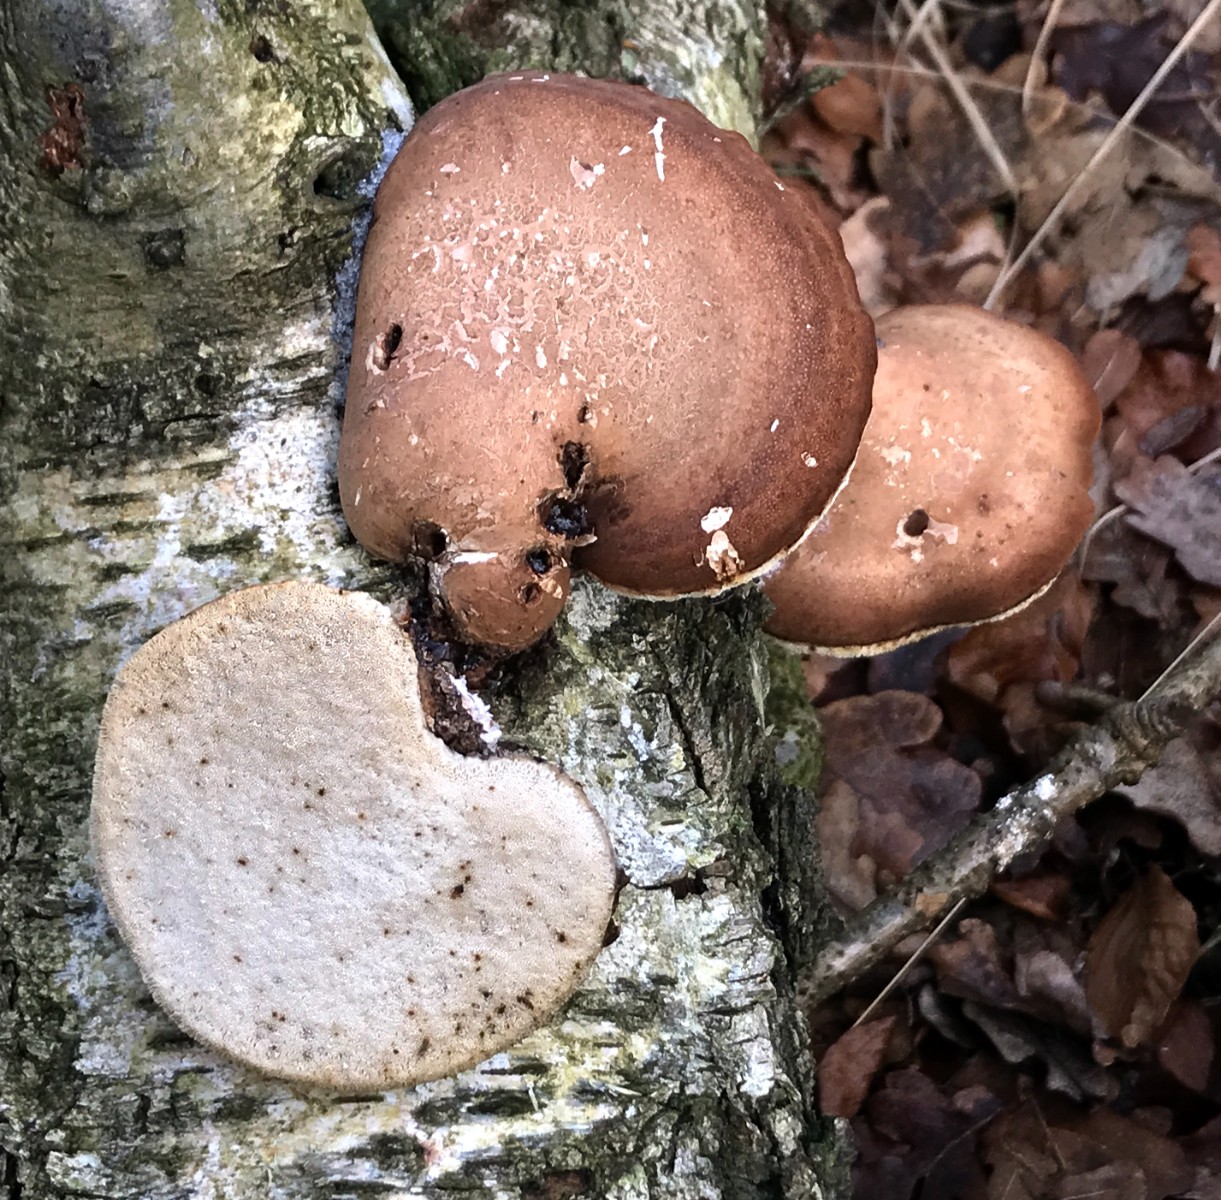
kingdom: Fungi
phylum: Basidiomycota
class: Agaricomycetes
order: Polyporales
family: Fomitopsidaceae
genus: Fomitopsis
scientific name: Fomitopsis betulina
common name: birkeporesvamp
